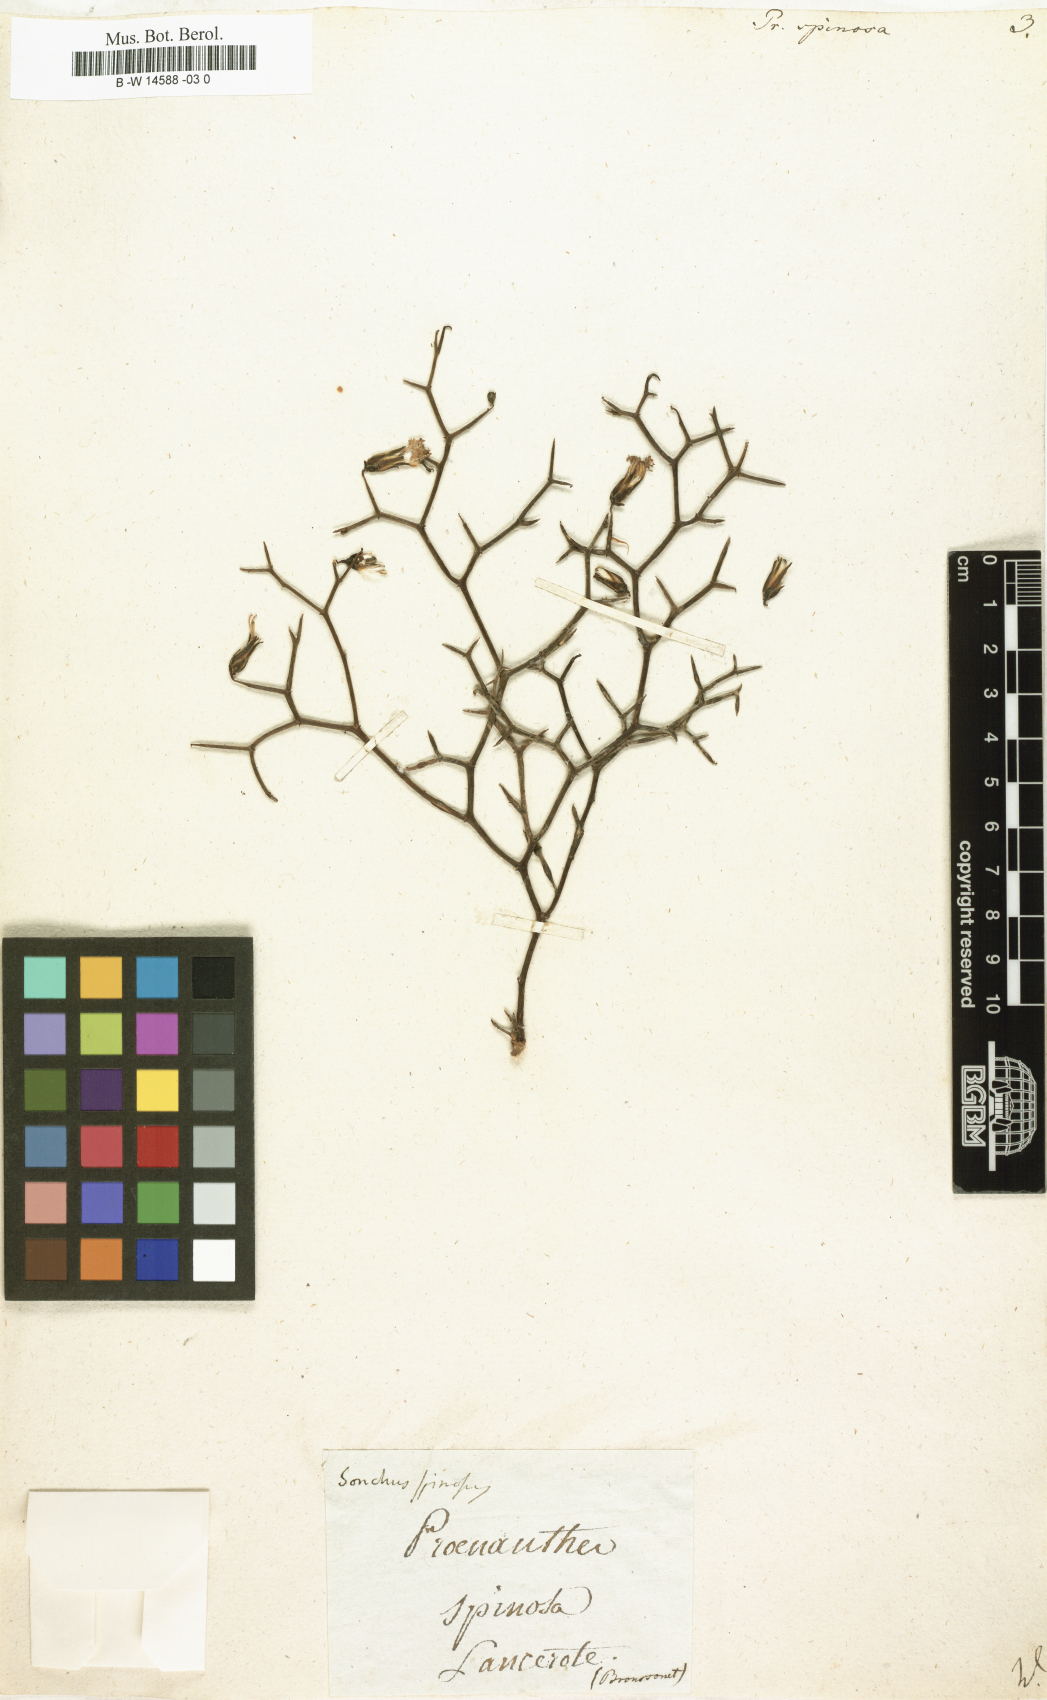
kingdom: Plantae
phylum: Tracheophyta
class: Magnoliopsida
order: Asterales
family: Asteraceae
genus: Prenanthes
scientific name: Prenanthes spinosa
